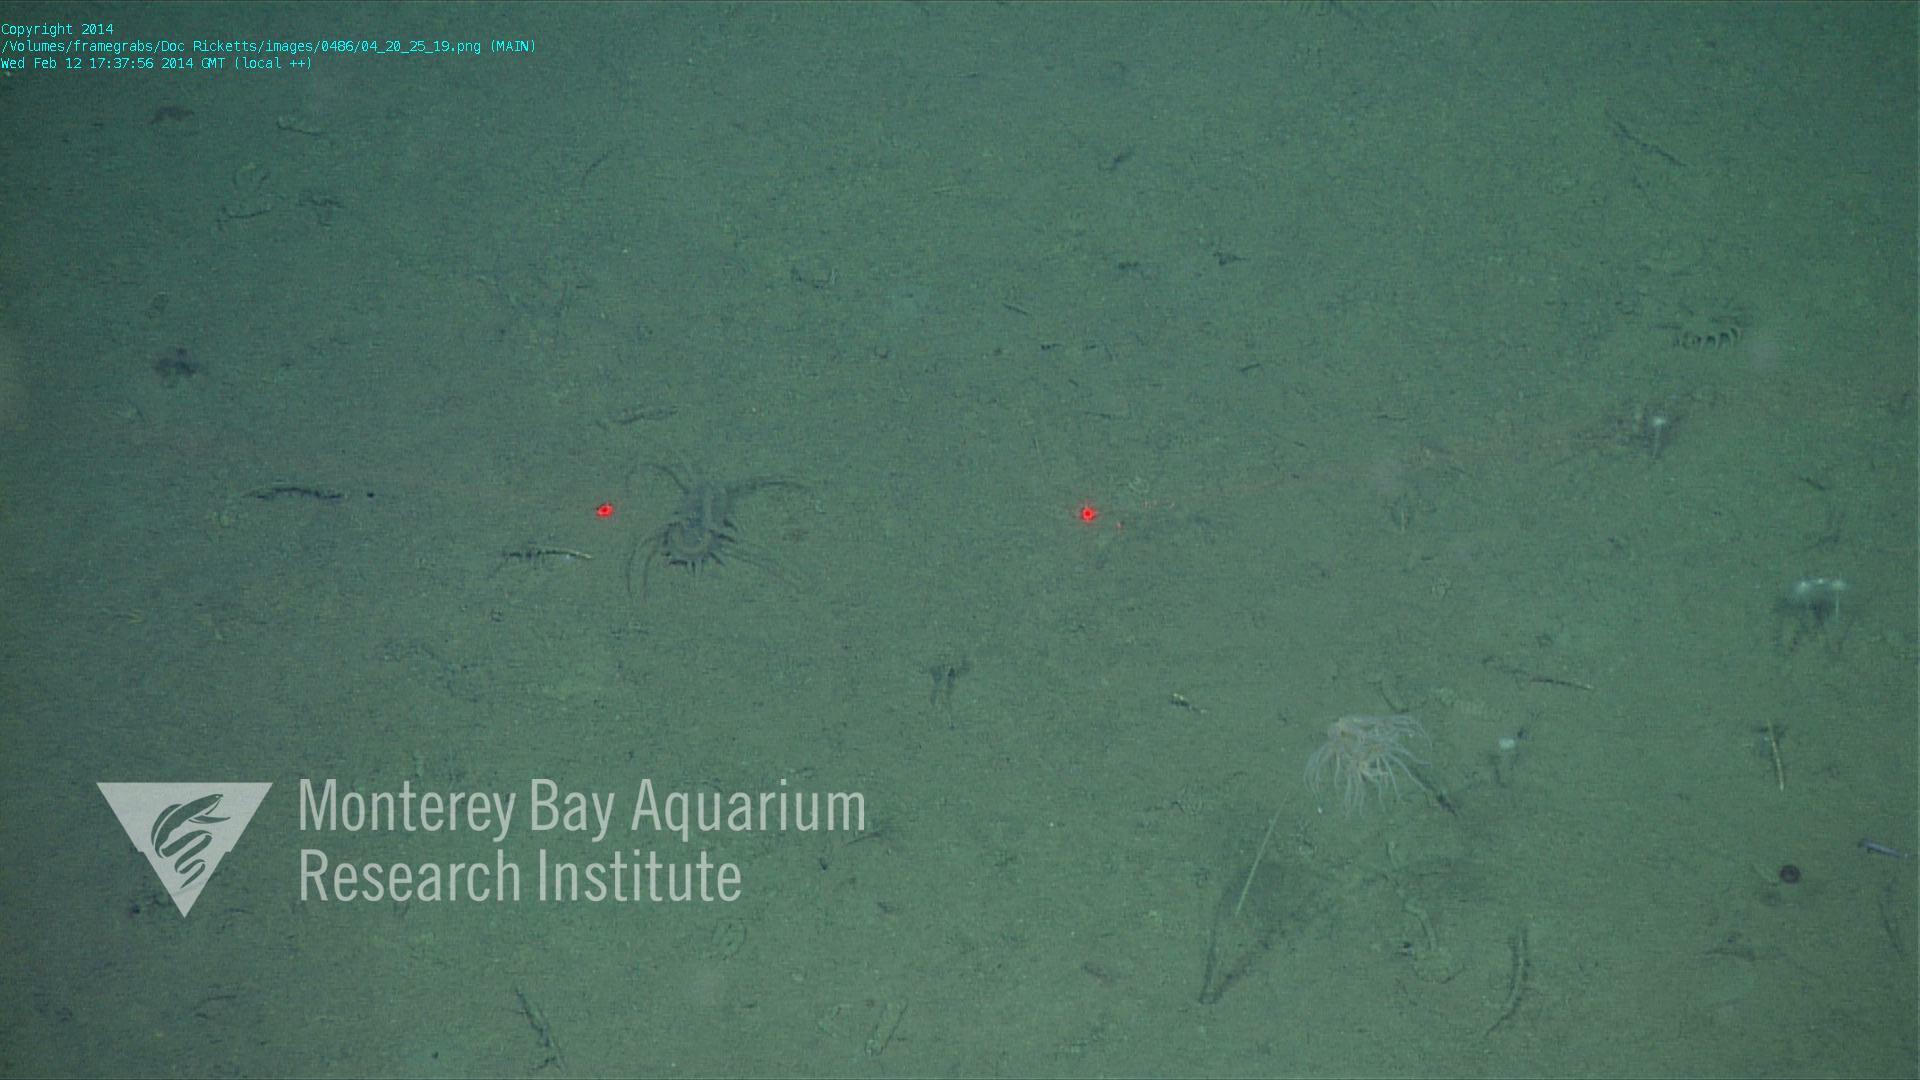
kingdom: Animalia
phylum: Porifera
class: Demospongiae
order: Poecilosclerida
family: Cladorhizidae
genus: Cladorhiza
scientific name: Cladorhiza
